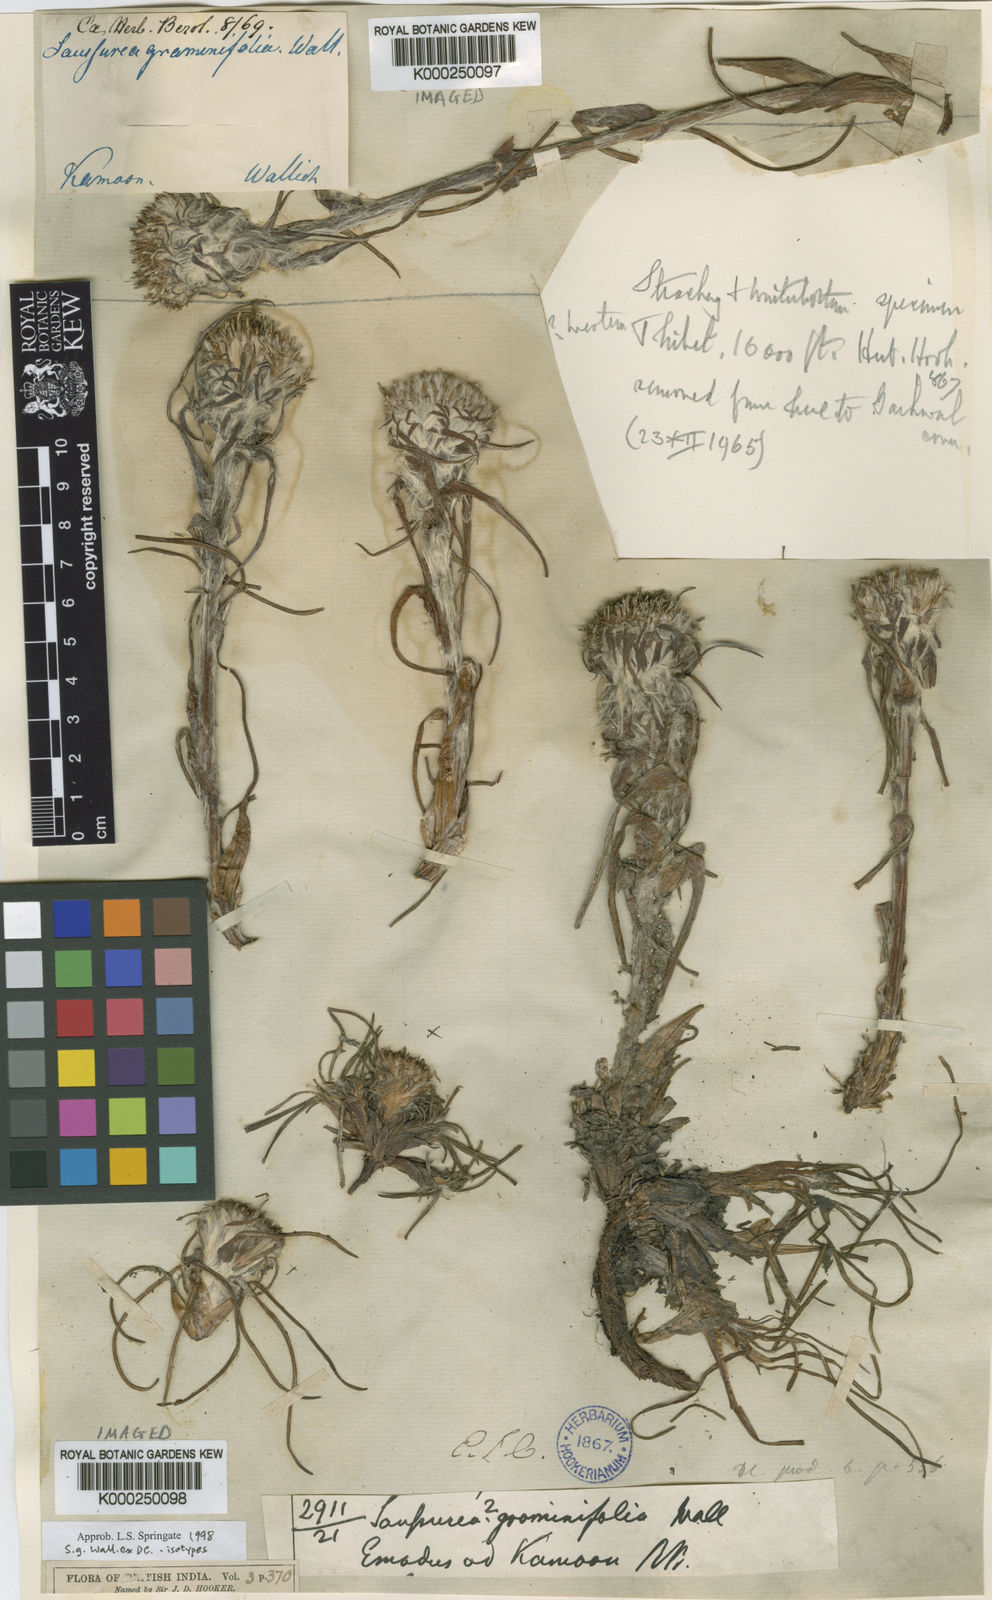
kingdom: Plantae
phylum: Tracheophyta
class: Magnoliopsida
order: Asterales
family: Asteraceae
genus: Saussurea
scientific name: Saussurea graminifolia
